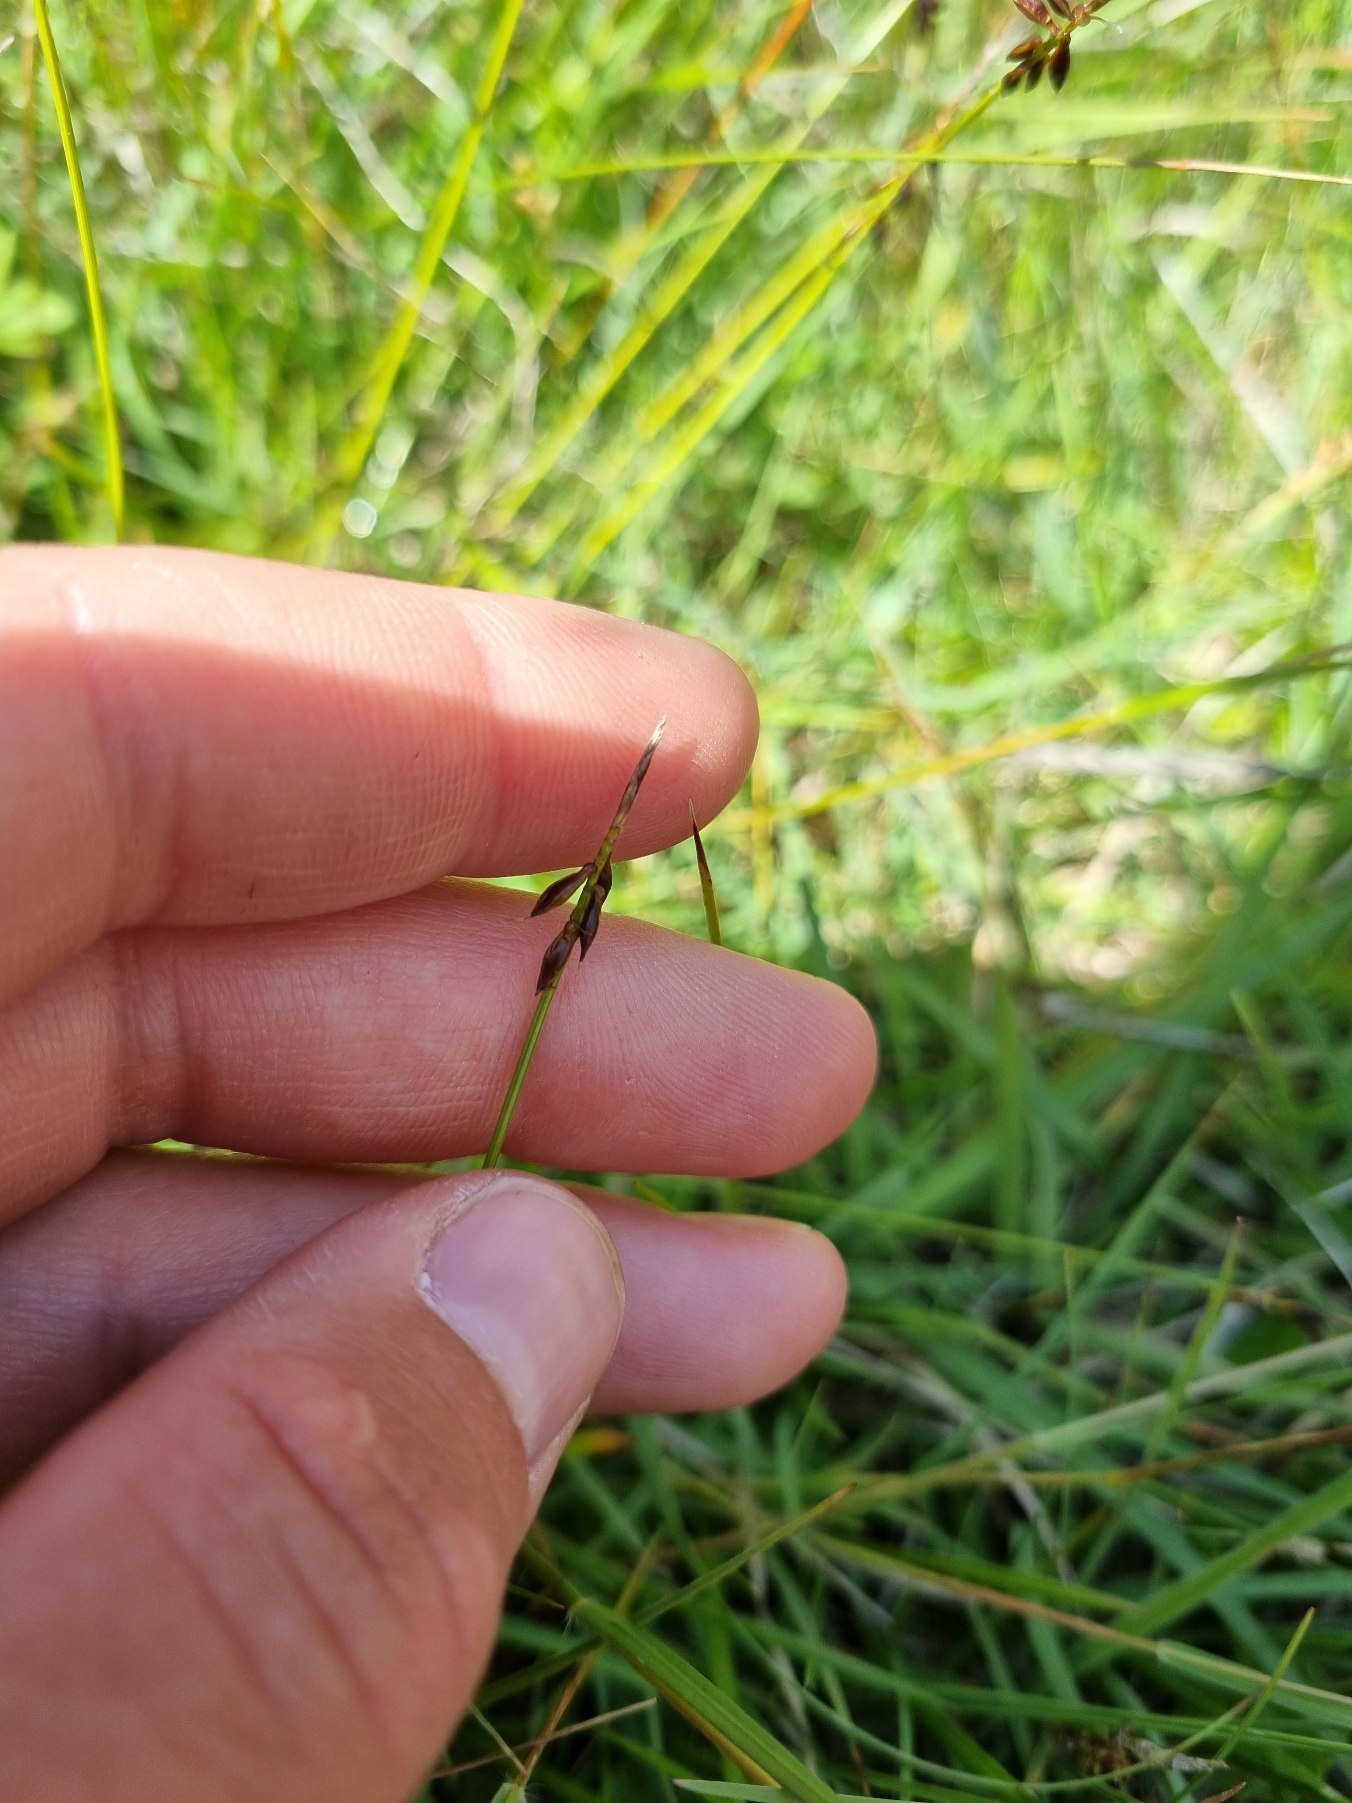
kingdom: Plantae
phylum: Tracheophyta
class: Liliopsida
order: Poales
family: Cyperaceae
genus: Carex
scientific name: Carex pulicaris
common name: Loppe-star
